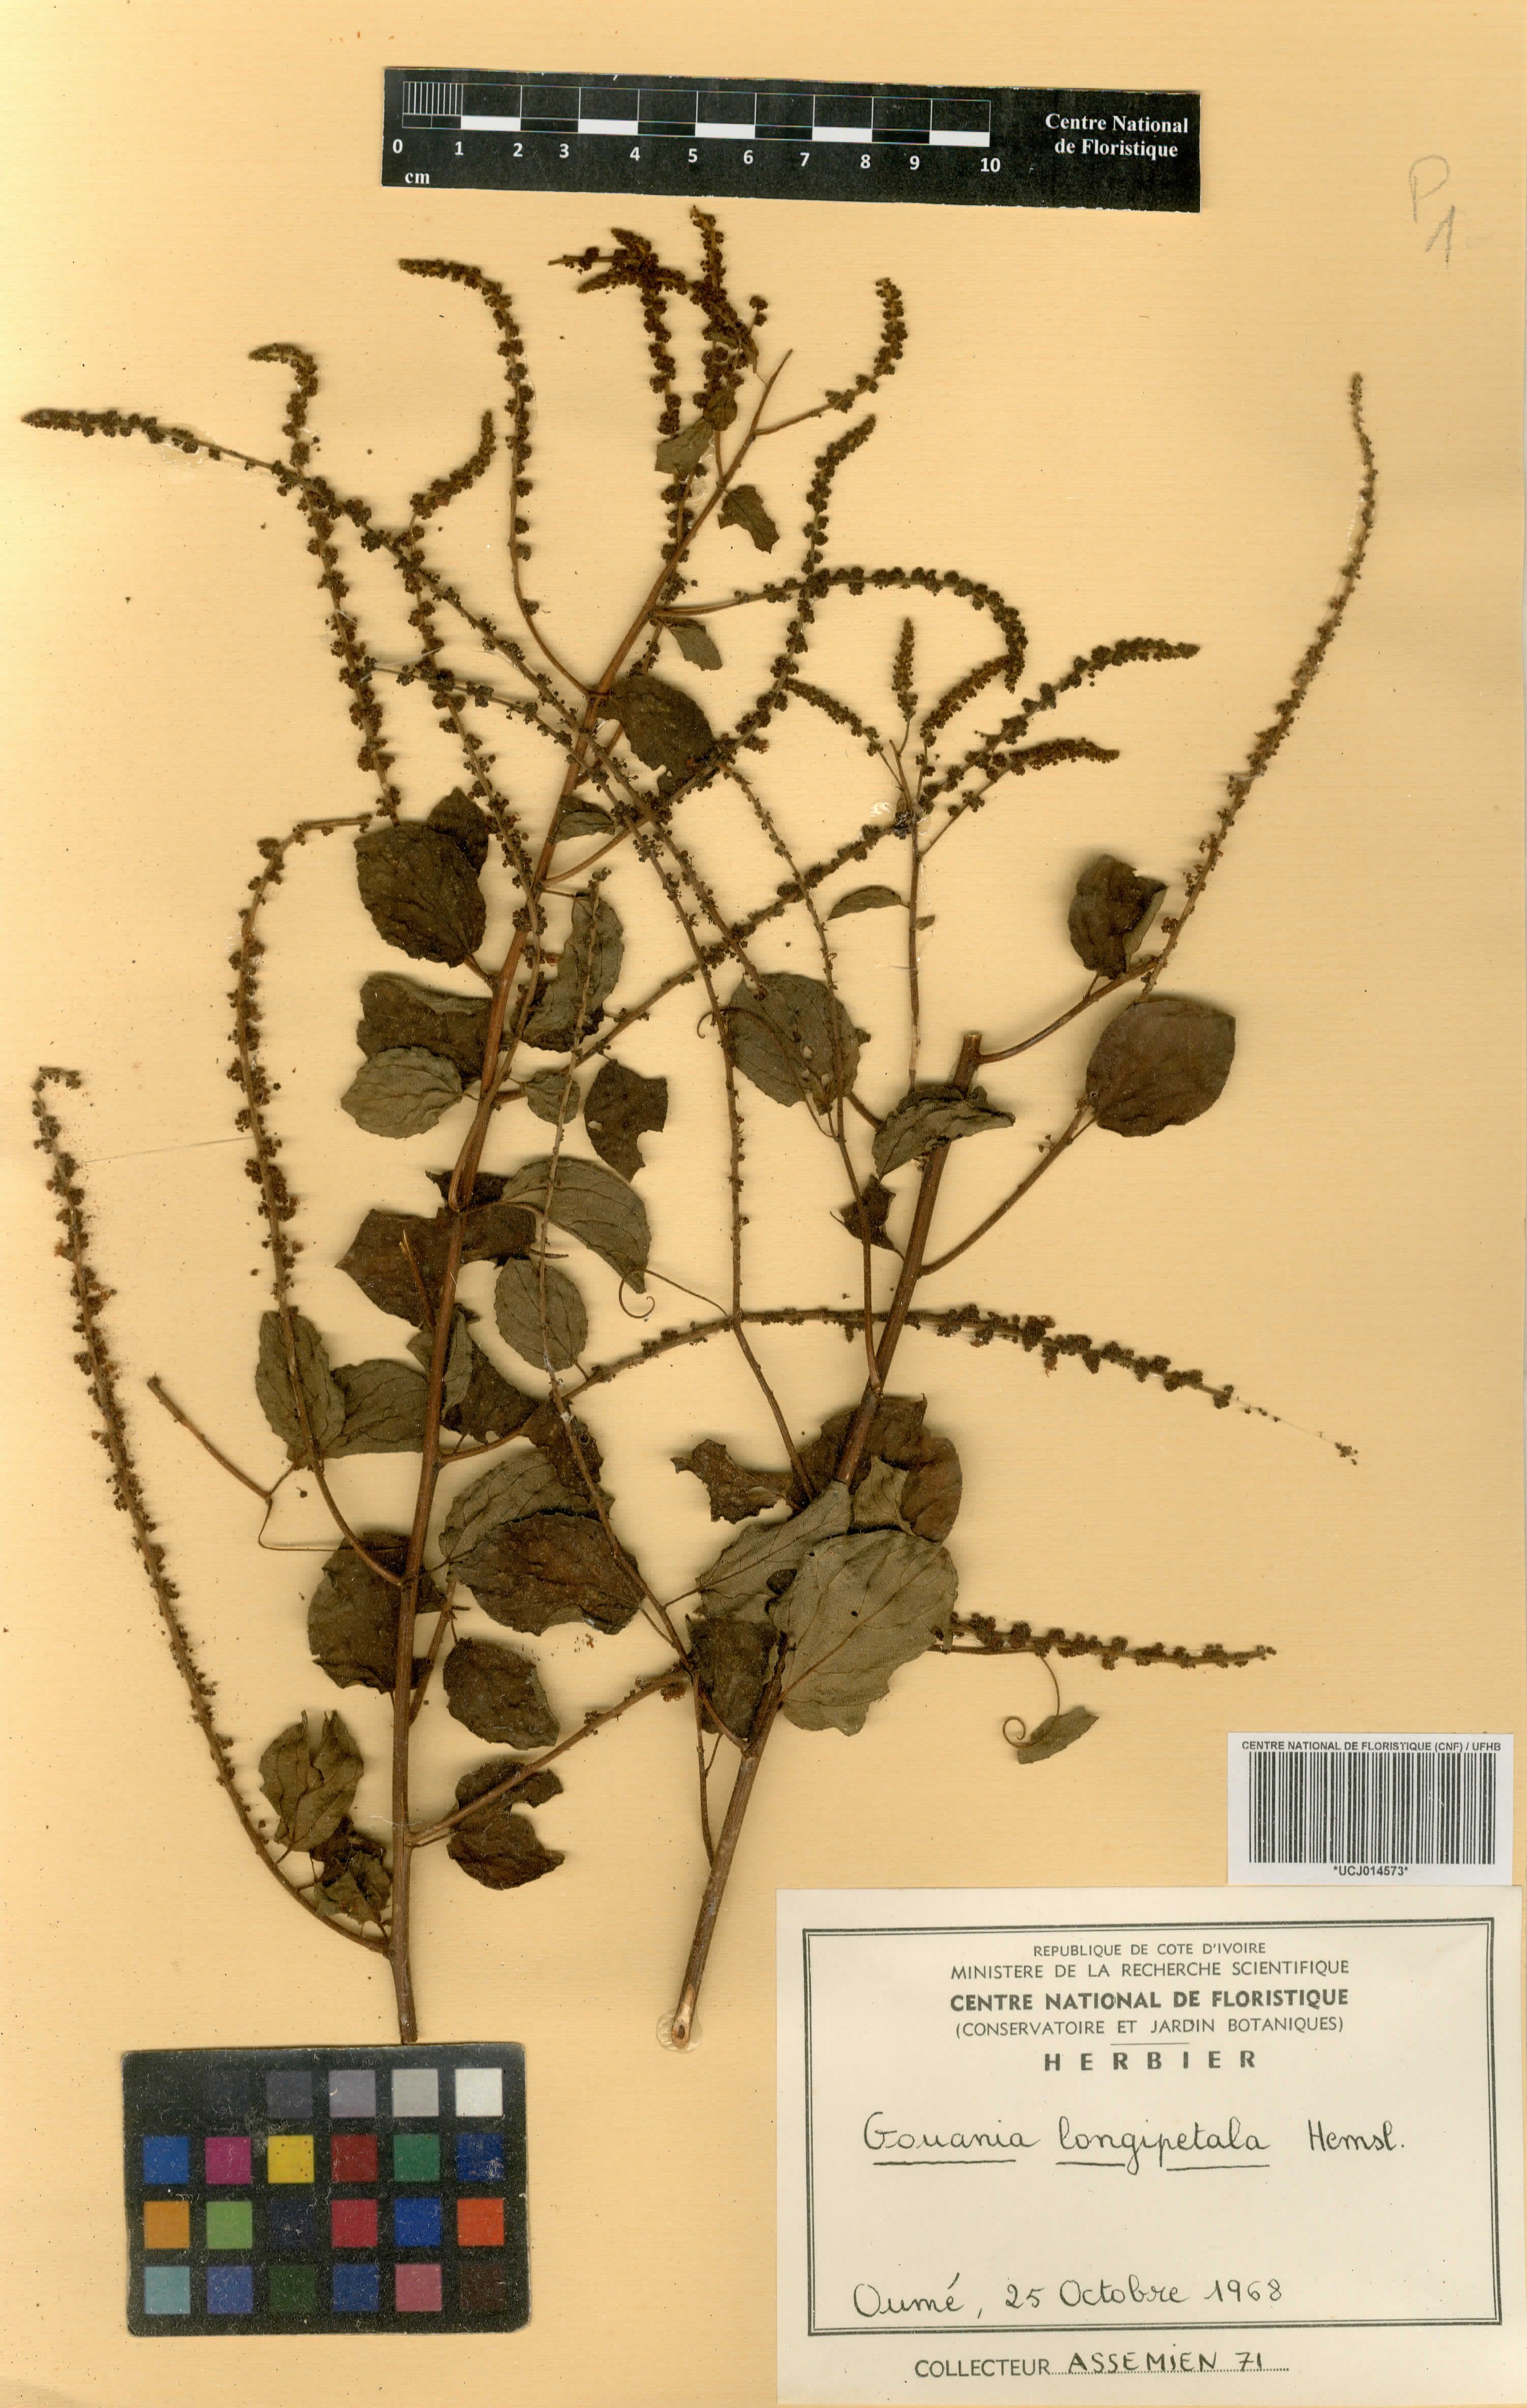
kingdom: Plantae
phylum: Tracheophyta
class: Magnoliopsida
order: Rosales
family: Rhamnaceae
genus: Gouania
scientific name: Gouania longipetala
